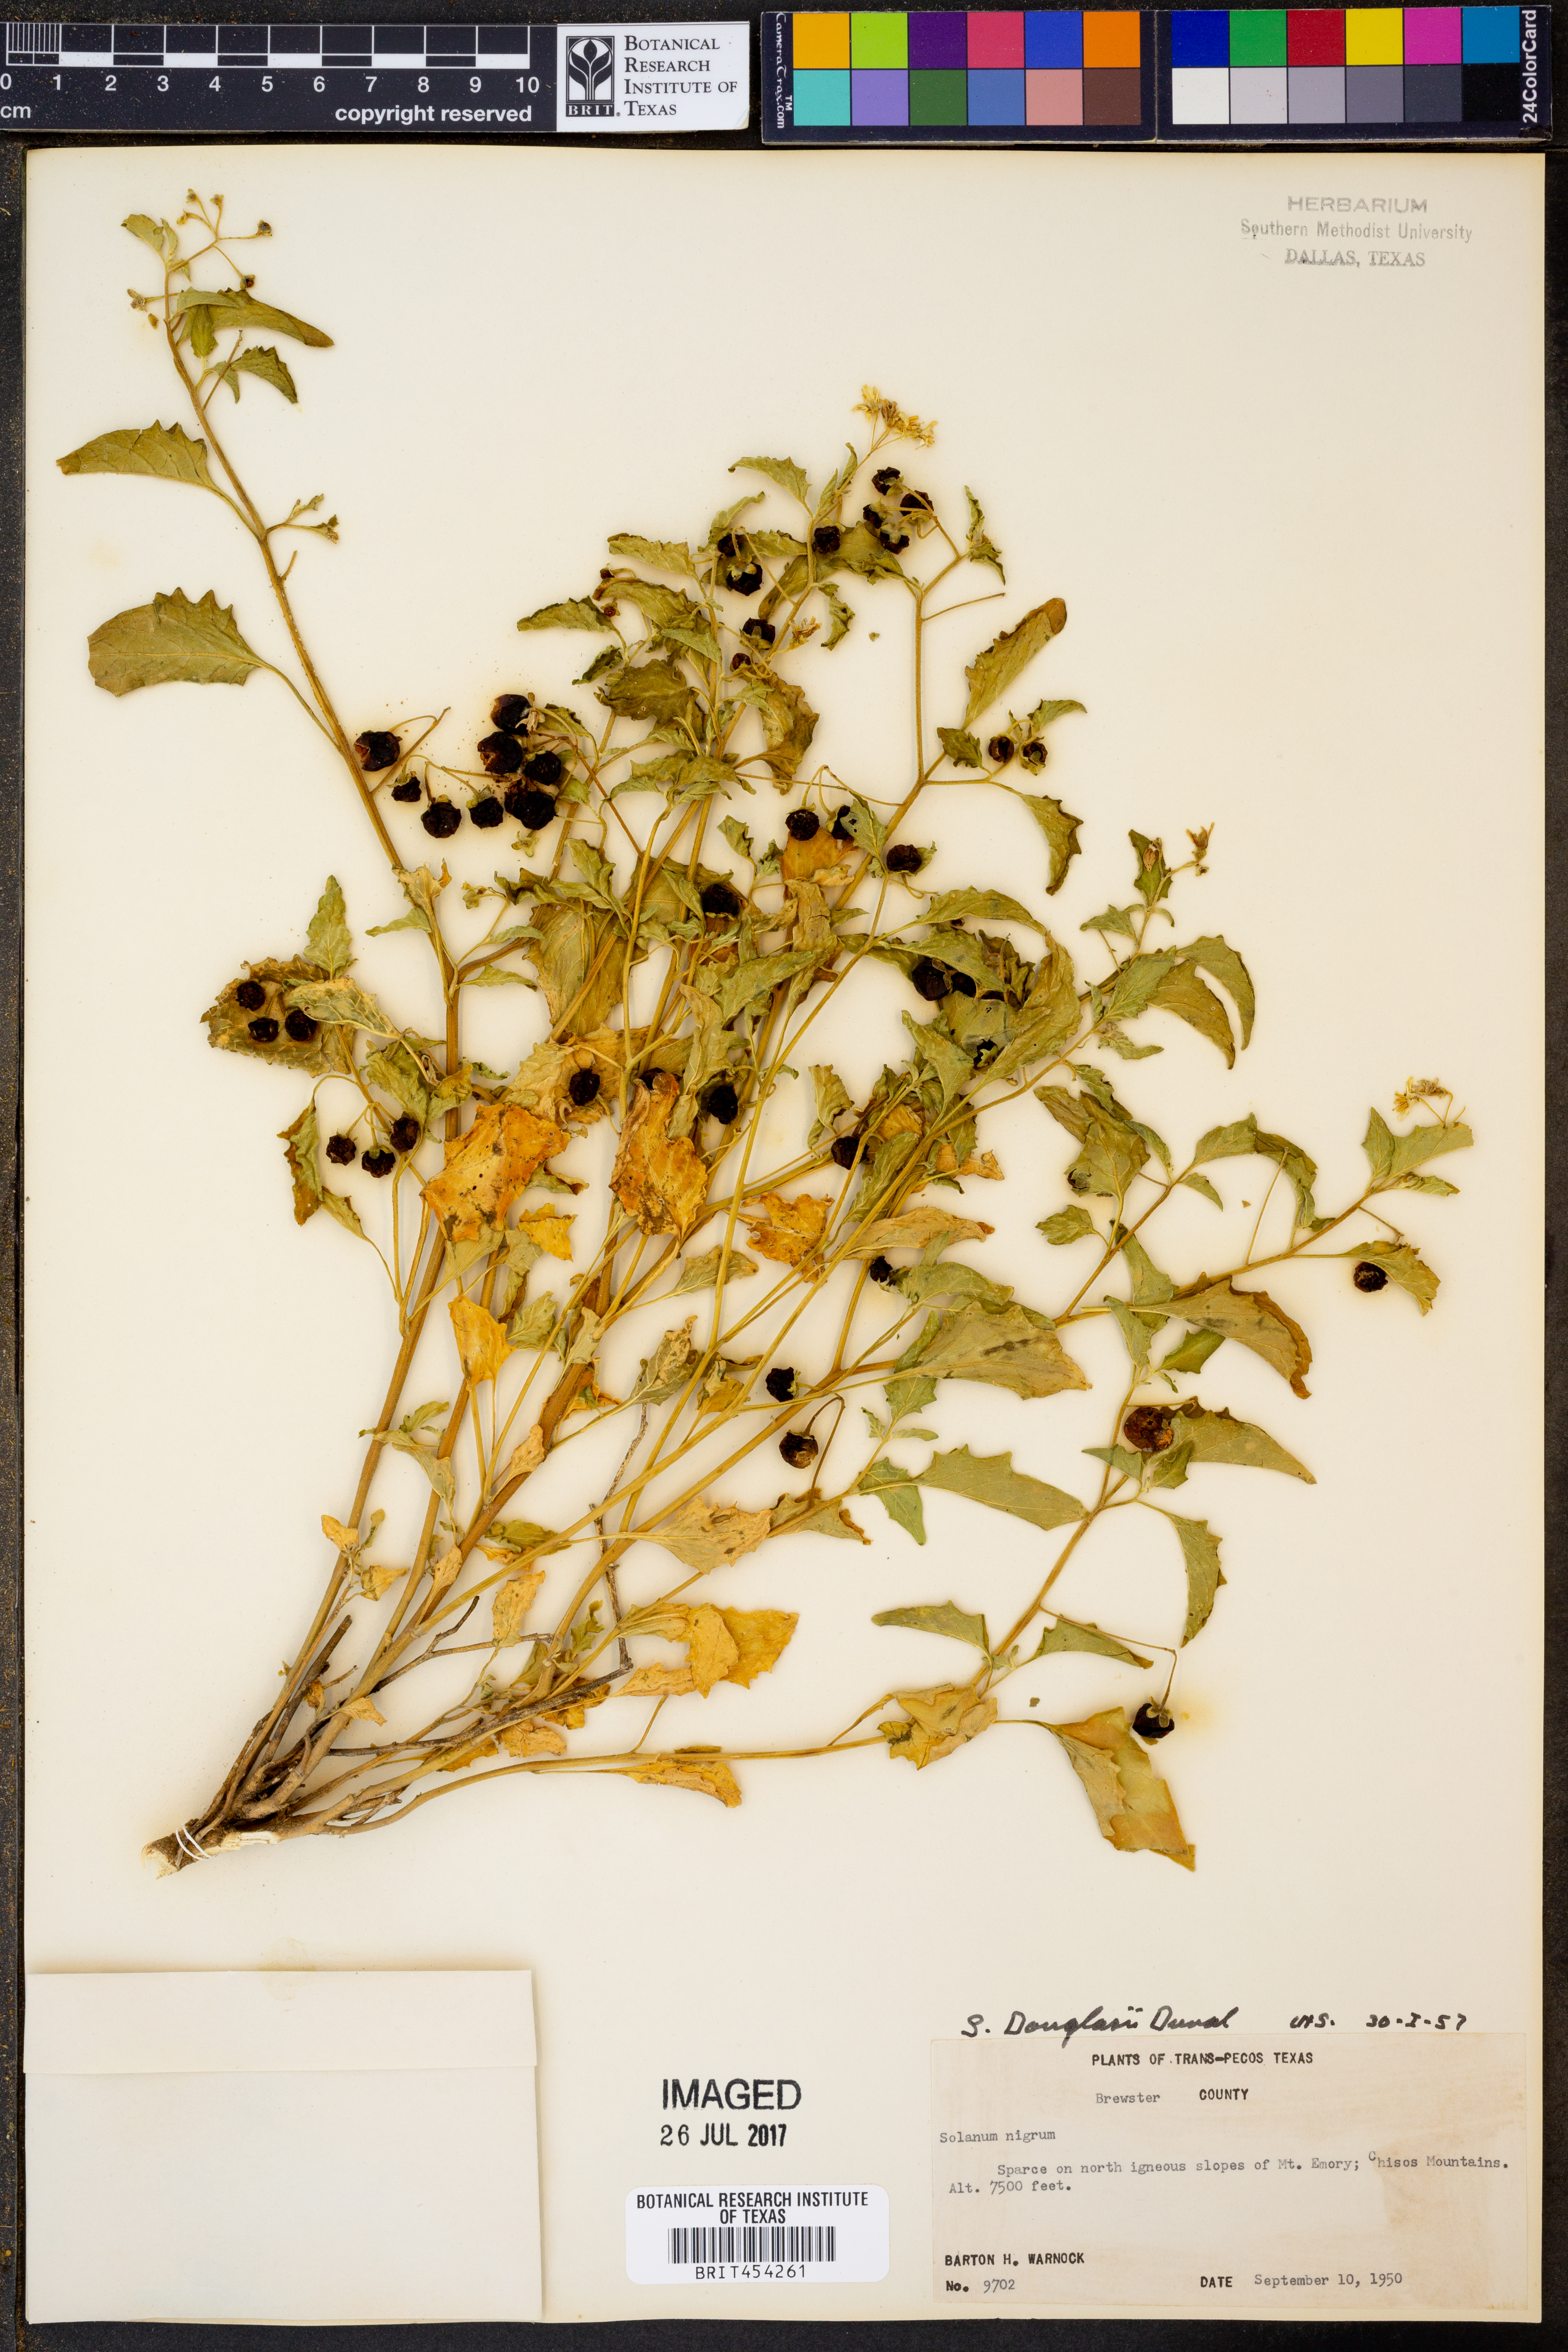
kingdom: Plantae
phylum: Tracheophyta
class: Magnoliopsida
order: Solanales
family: Solanaceae
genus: Solanum
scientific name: Solanum douglasii
